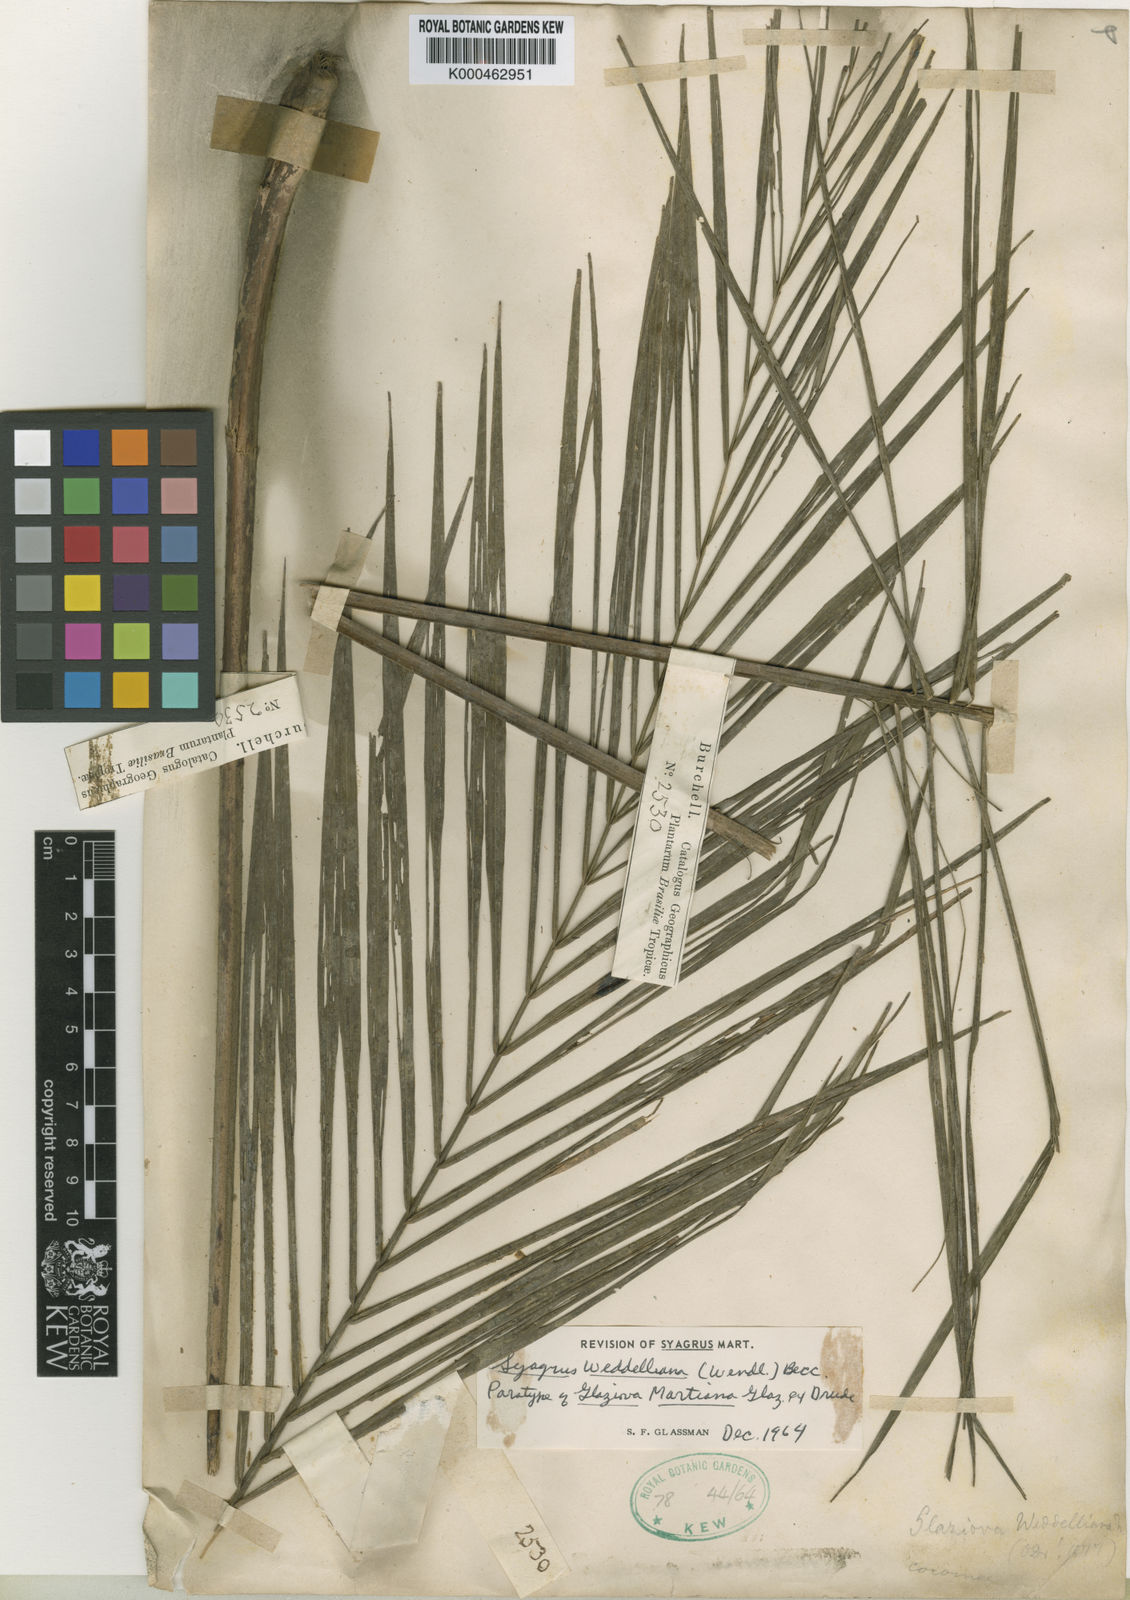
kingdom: Plantae
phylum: Tracheophyta
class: Liliopsida
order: Arecales
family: Arecaceae
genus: Syagrus
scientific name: Syagrus weddelliana
